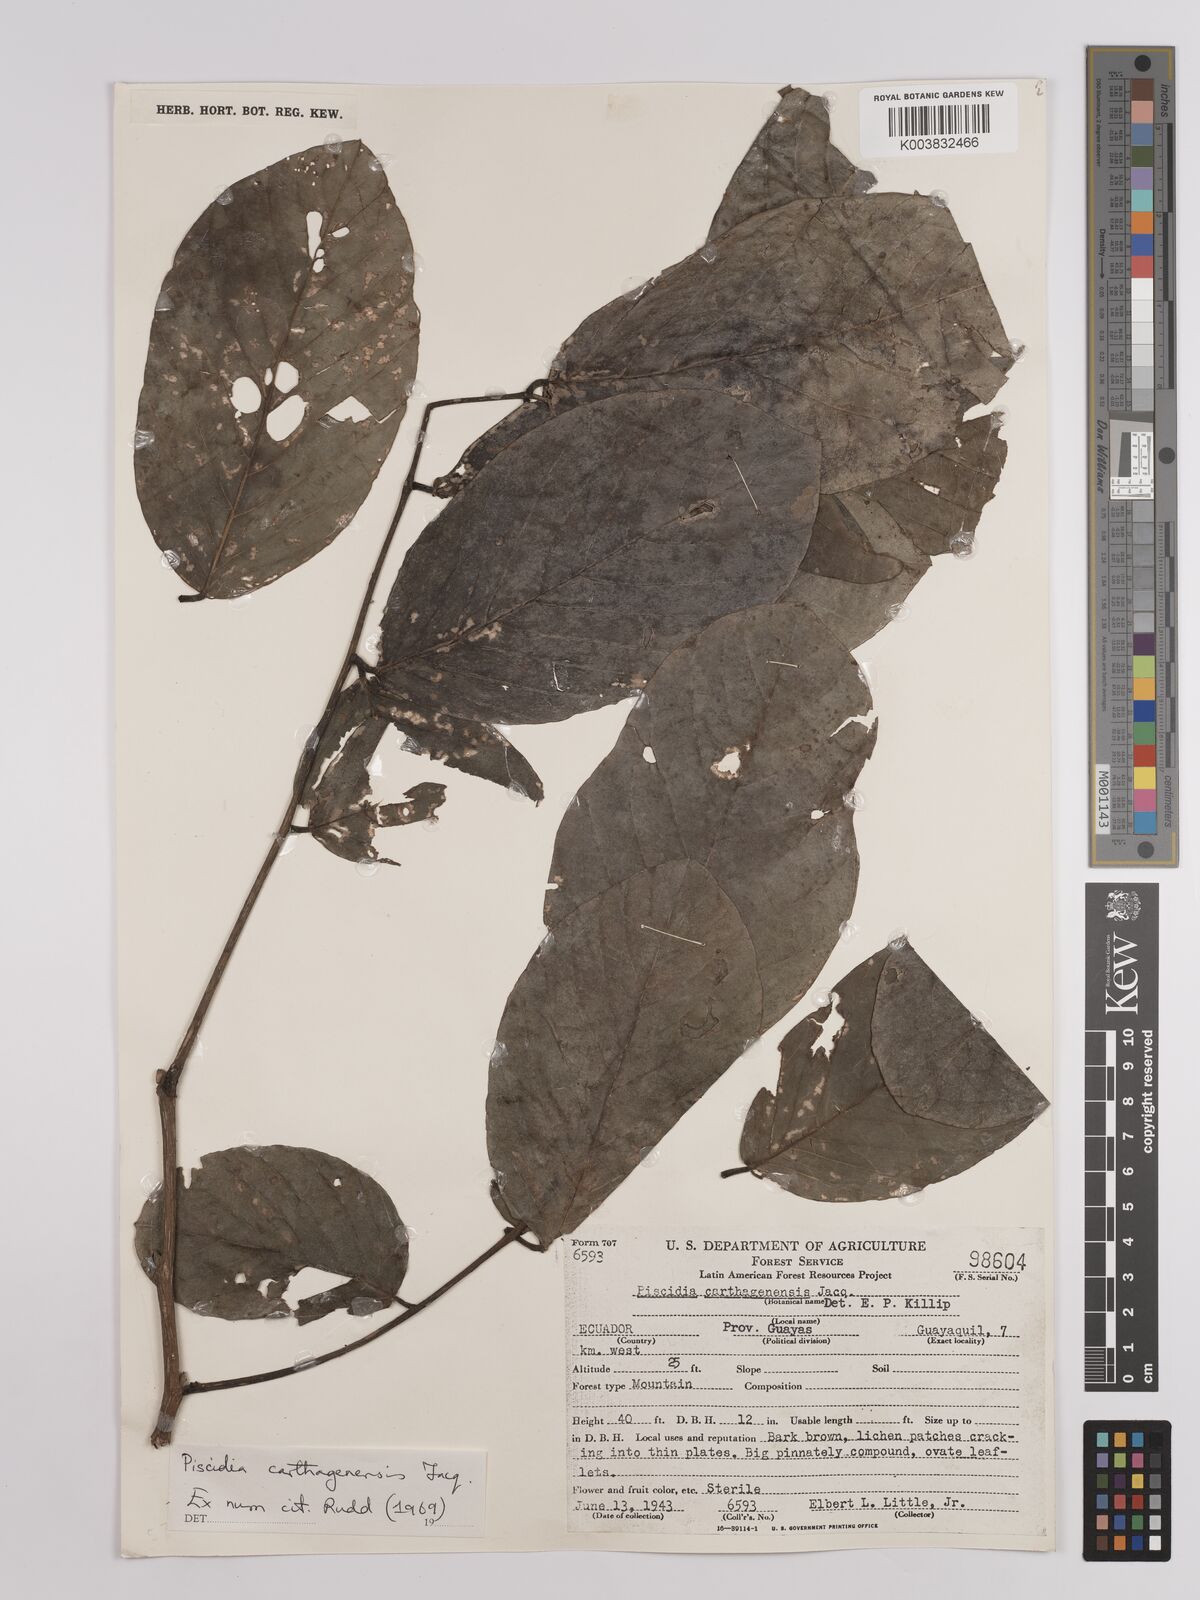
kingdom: Plantae
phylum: Tracheophyta
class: Magnoliopsida
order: Fabales
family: Fabaceae
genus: Piscidia
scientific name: Piscidia carthagenensis
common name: Stinkwood
